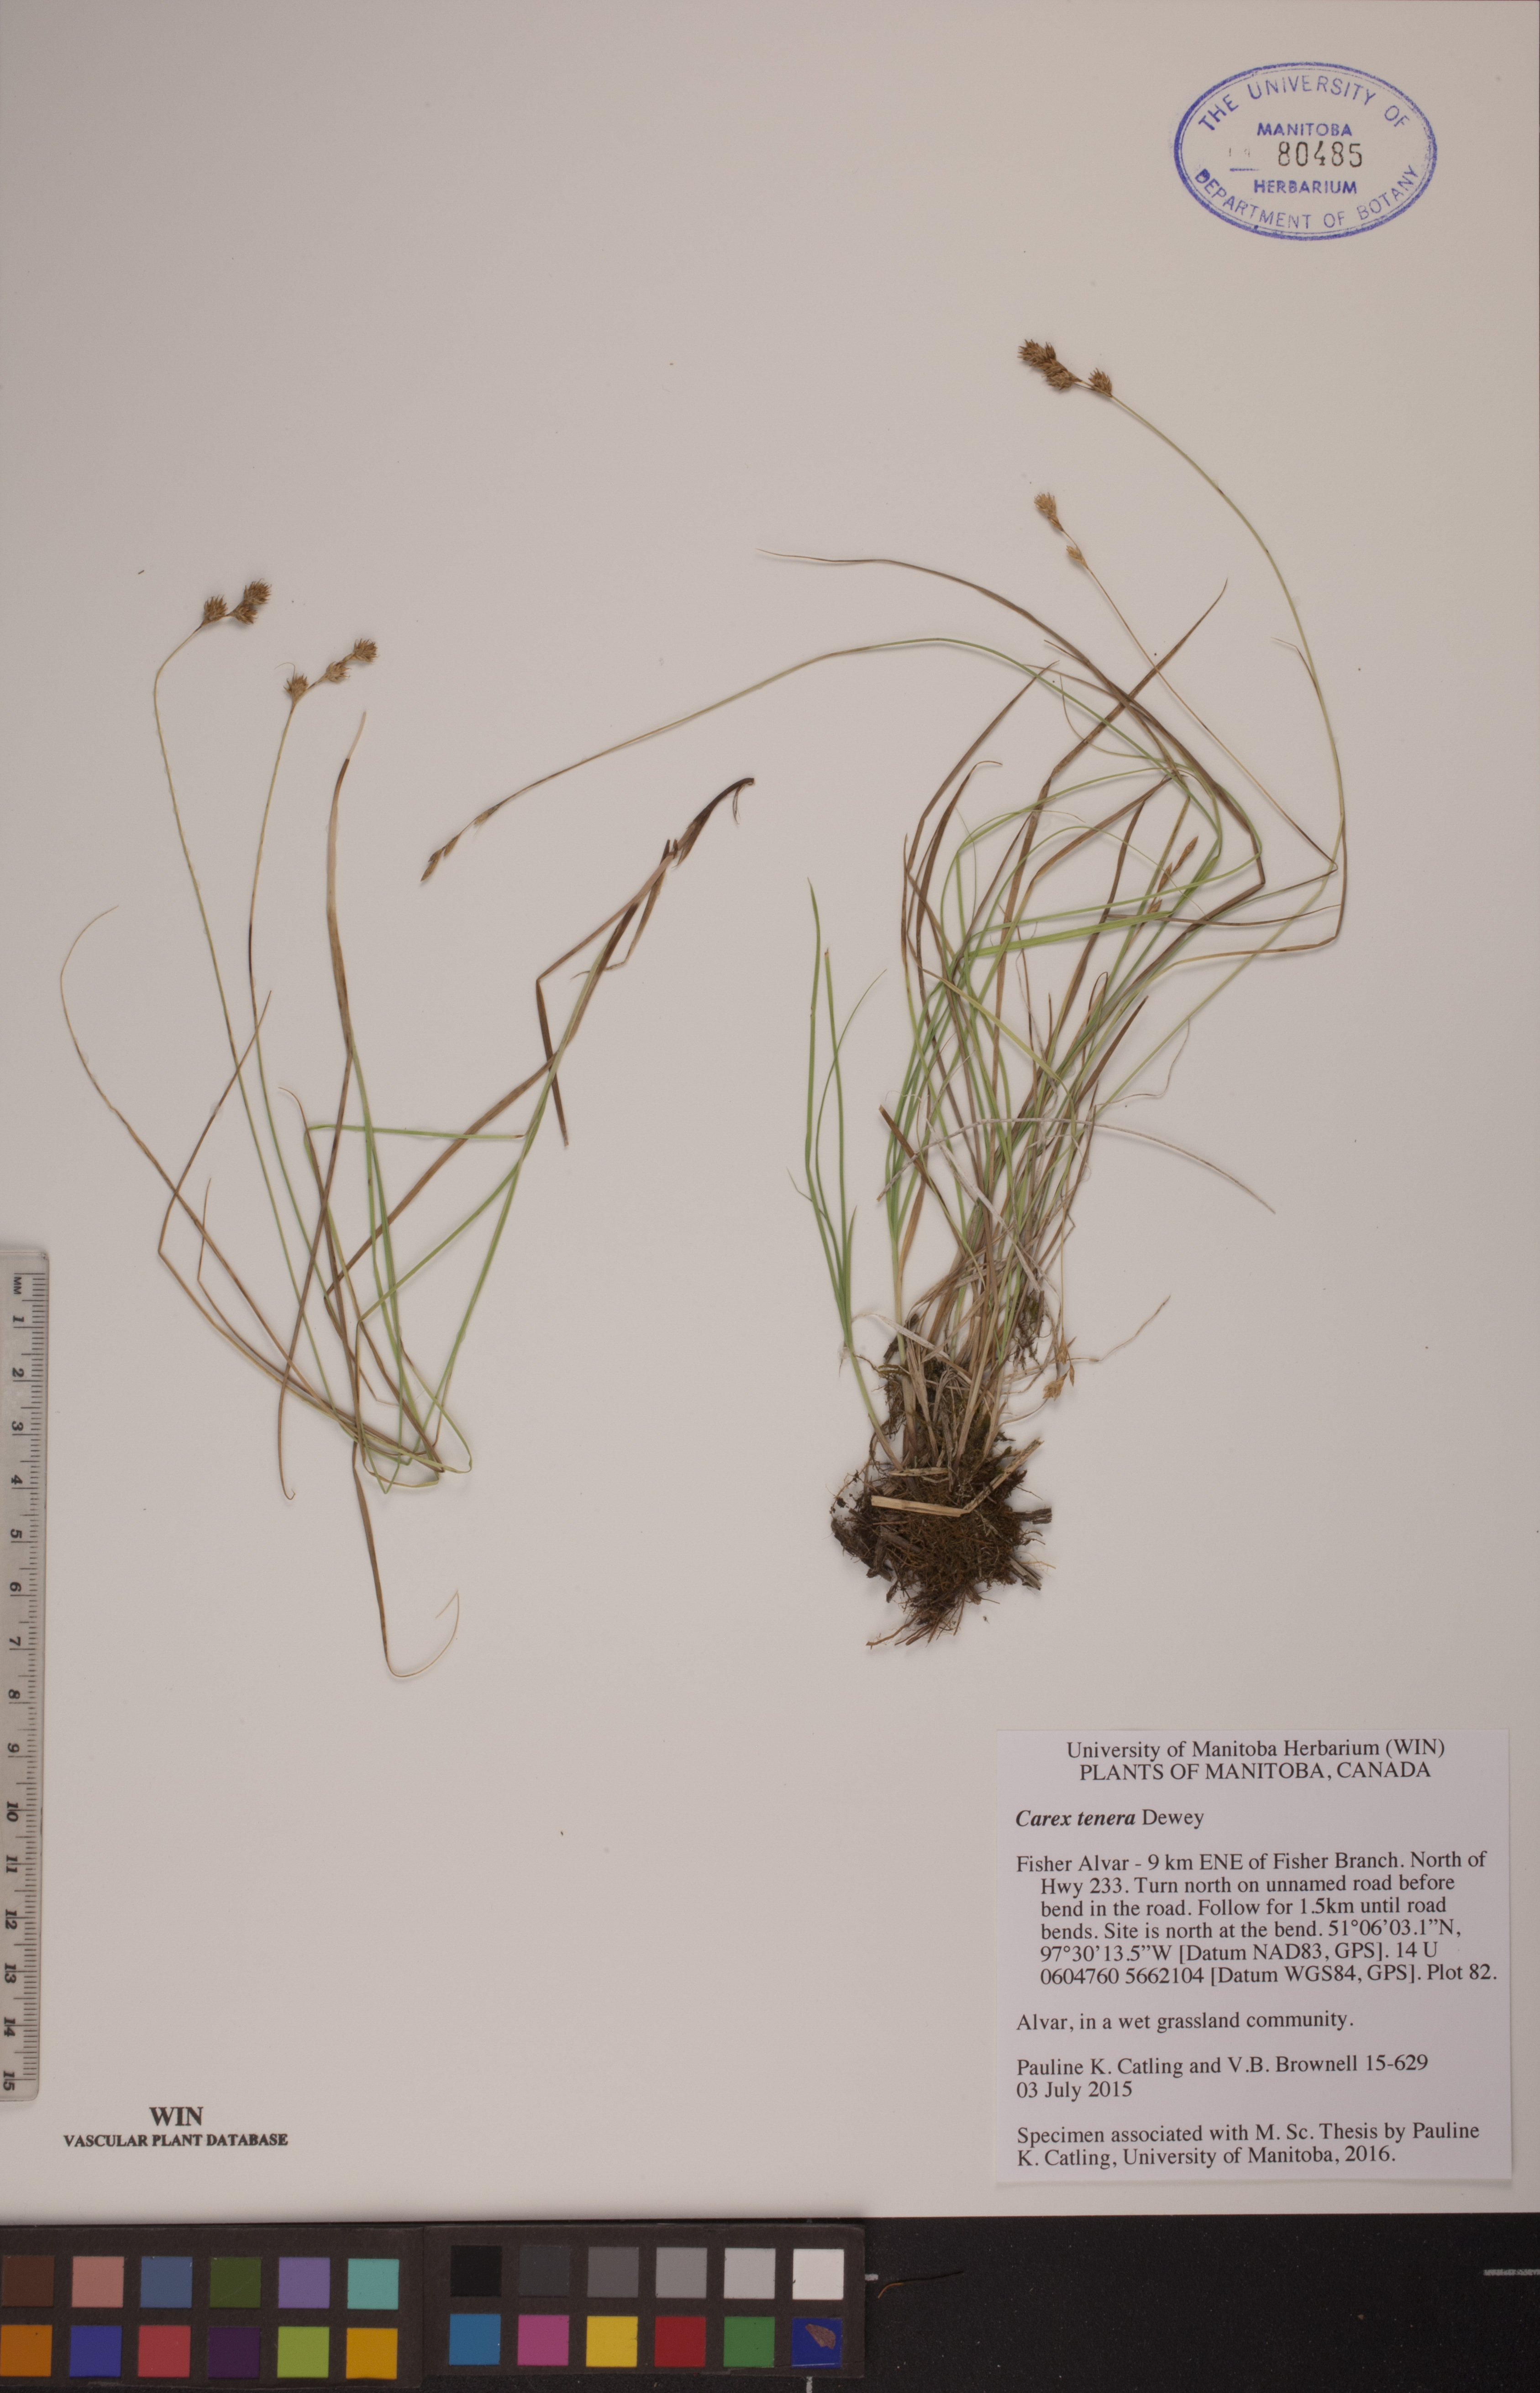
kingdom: Plantae
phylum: Tracheophyta
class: Liliopsida
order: Poales
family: Cyperaceae
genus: Carex
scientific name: Carex tenera
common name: Broad-fruited sedge
